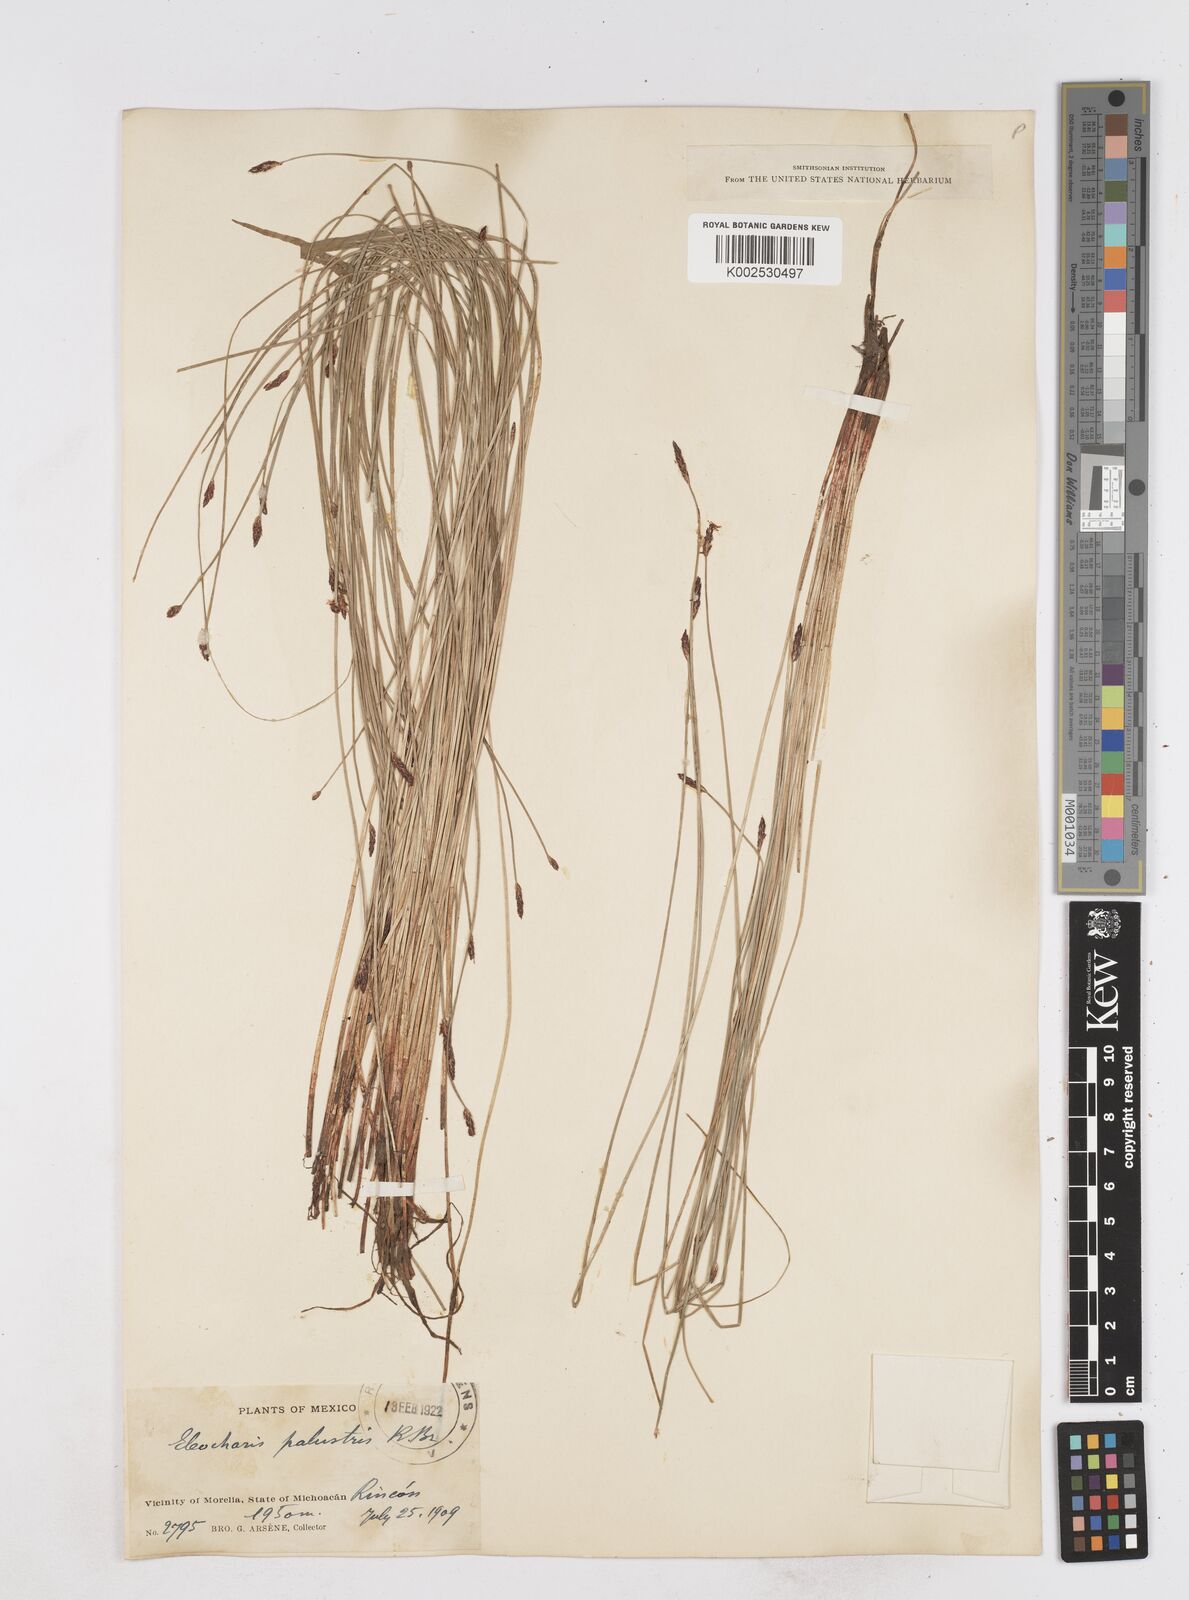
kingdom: Plantae
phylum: Tracheophyta
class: Liliopsida
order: Poales
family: Cyperaceae
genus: Eleocharis
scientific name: Eleocharis palustris
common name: Common spike-rush
